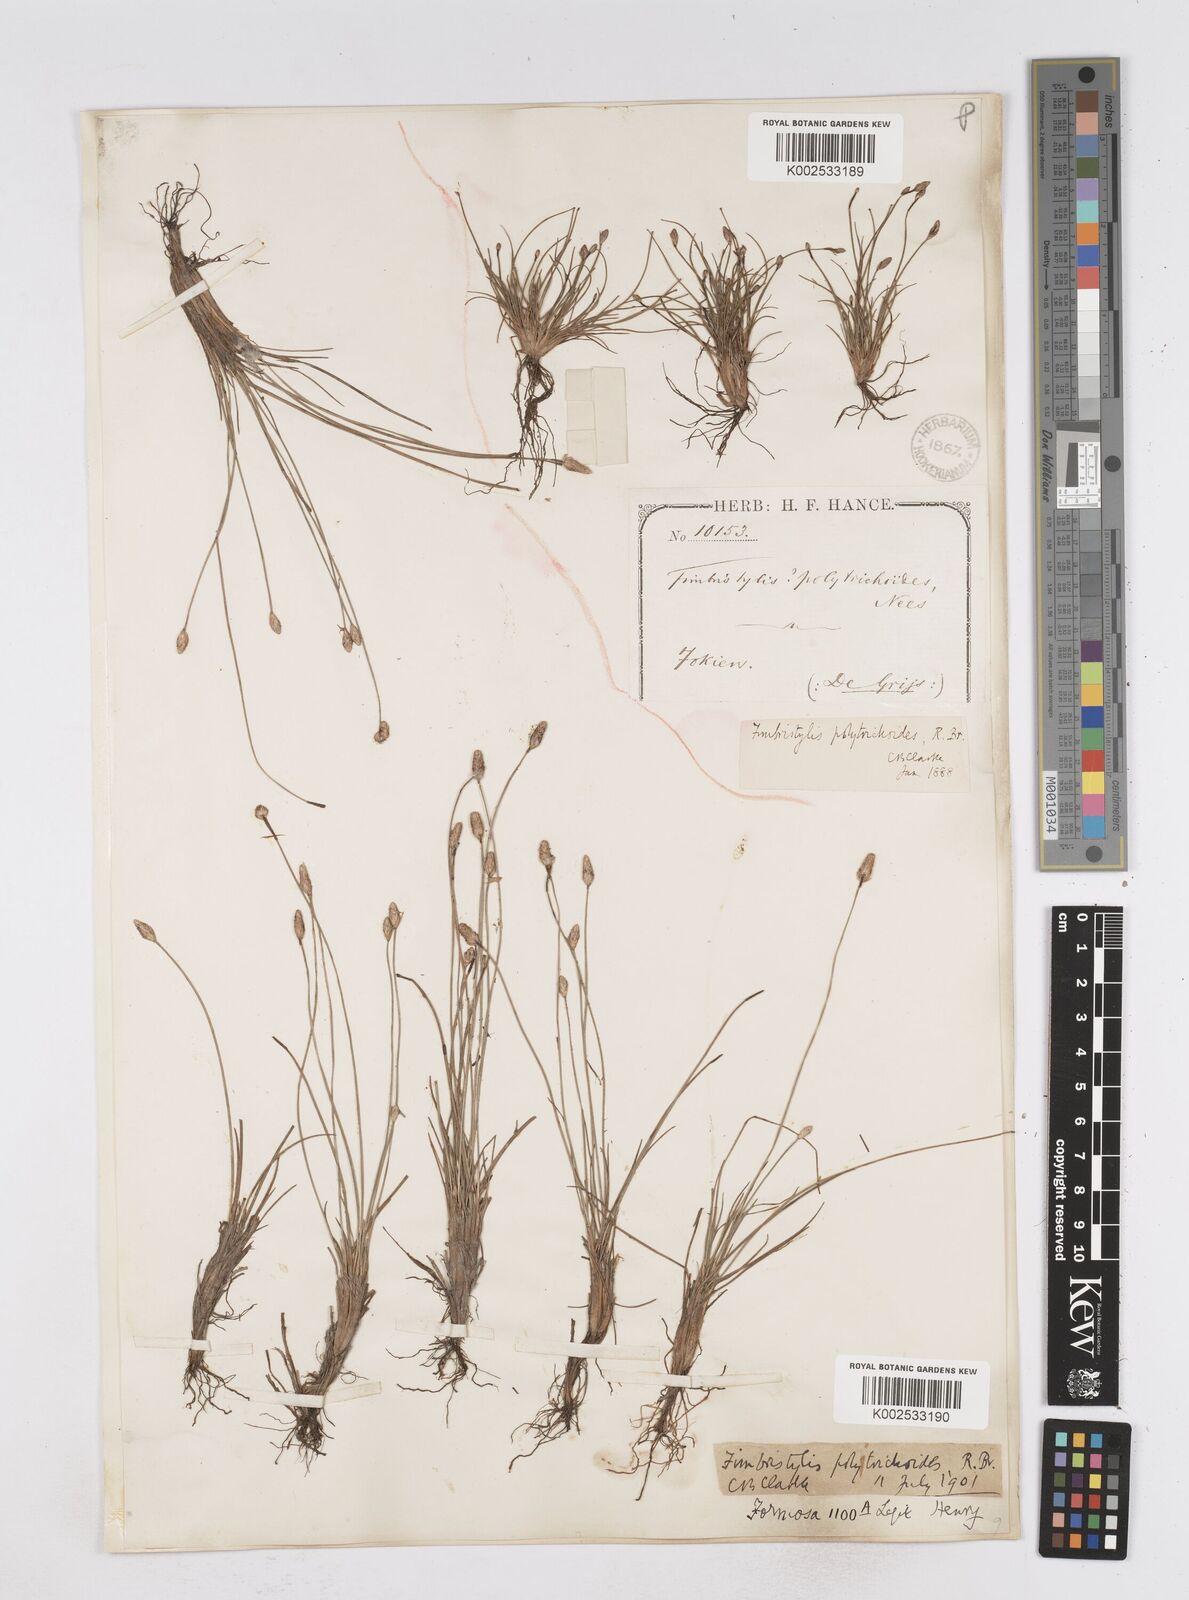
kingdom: Plantae
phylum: Tracheophyta
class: Liliopsida
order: Poales
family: Cyperaceae
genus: Fimbristylis
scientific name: Fimbristylis polytrichoides
